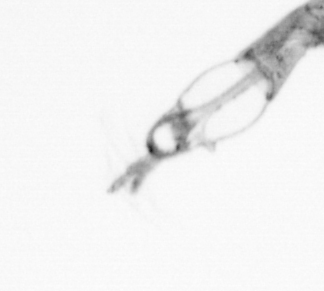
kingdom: Animalia
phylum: Arthropoda
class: Copepoda
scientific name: Copepoda
